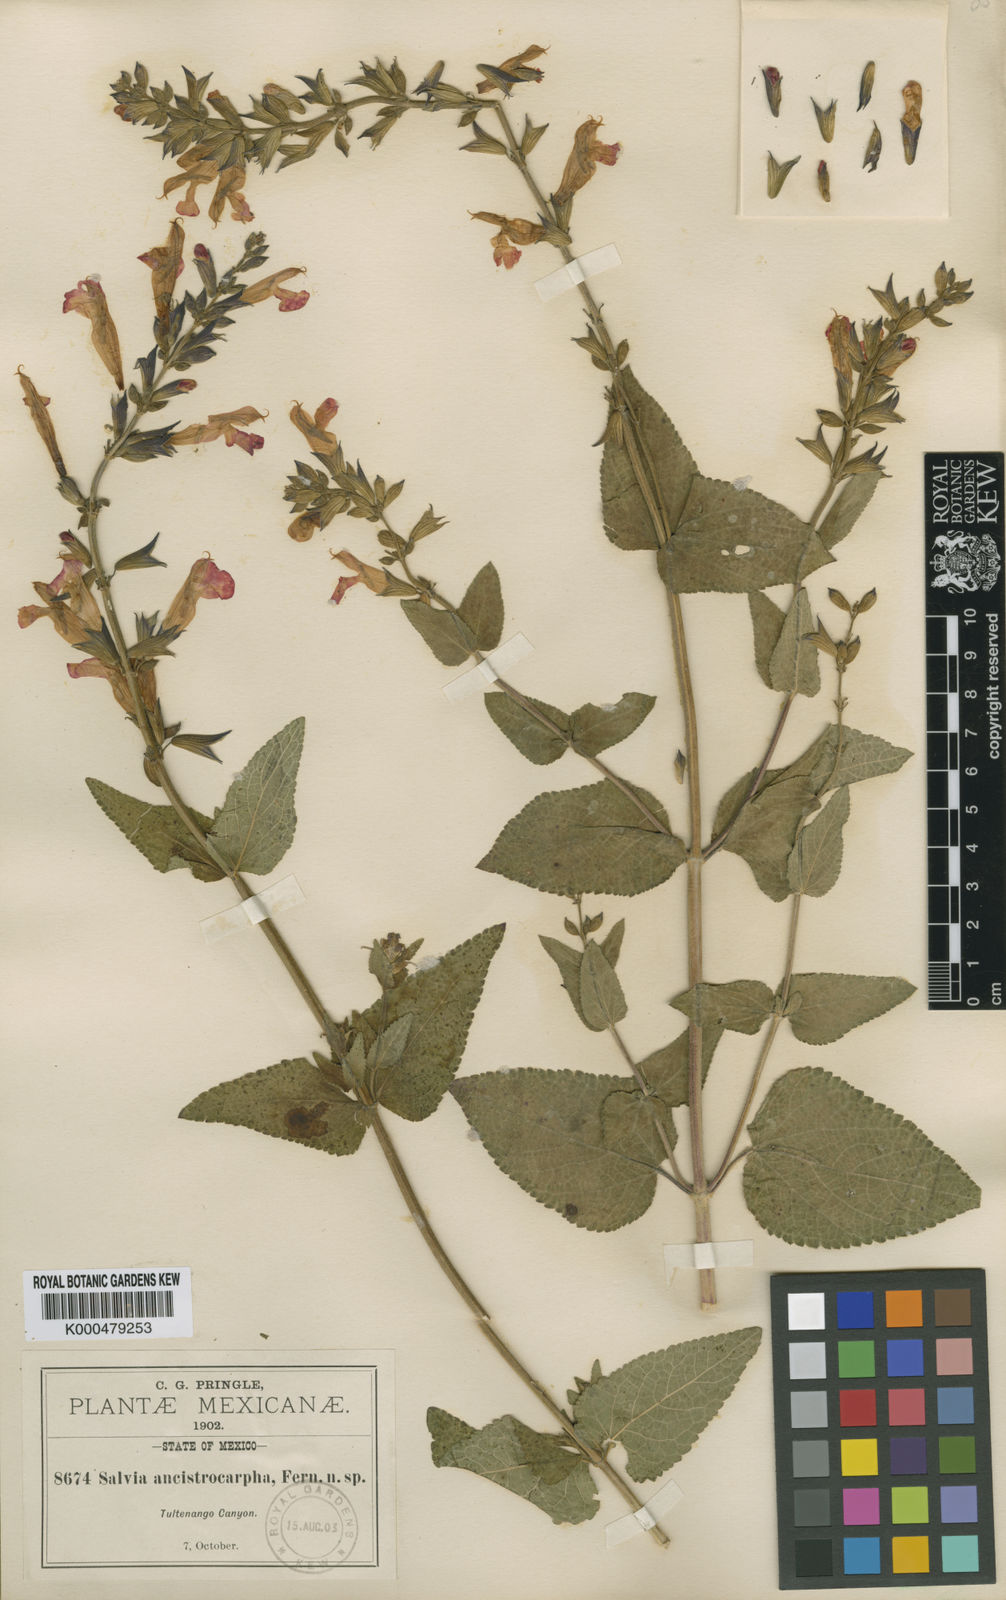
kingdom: Plantae
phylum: Tracheophyta
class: Magnoliopsida
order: Lamiales
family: Lamiaceae
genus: Salvia
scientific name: Salvia pulchella
